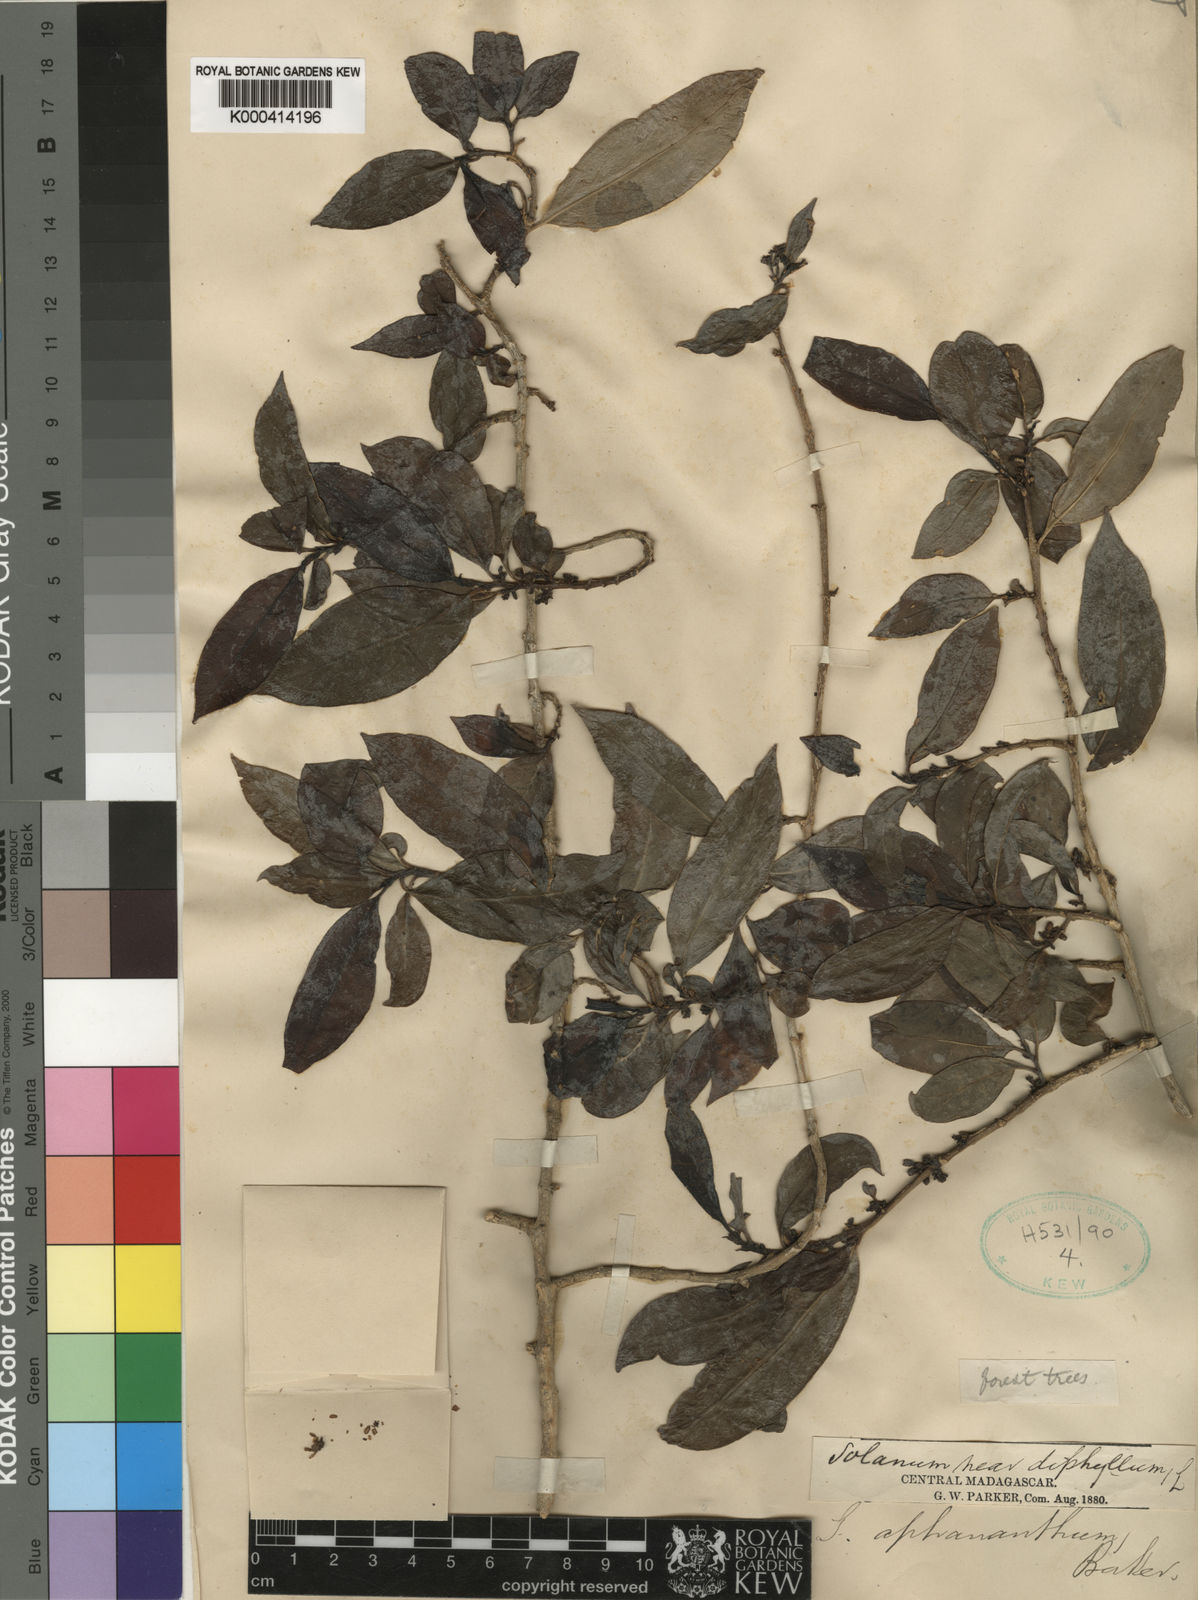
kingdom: Plantae
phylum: Tracheophyta
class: Magnoliopsida
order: Solanales
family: Montiniaceae
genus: Kaliphora
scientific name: Kaliphora madagascariensis
